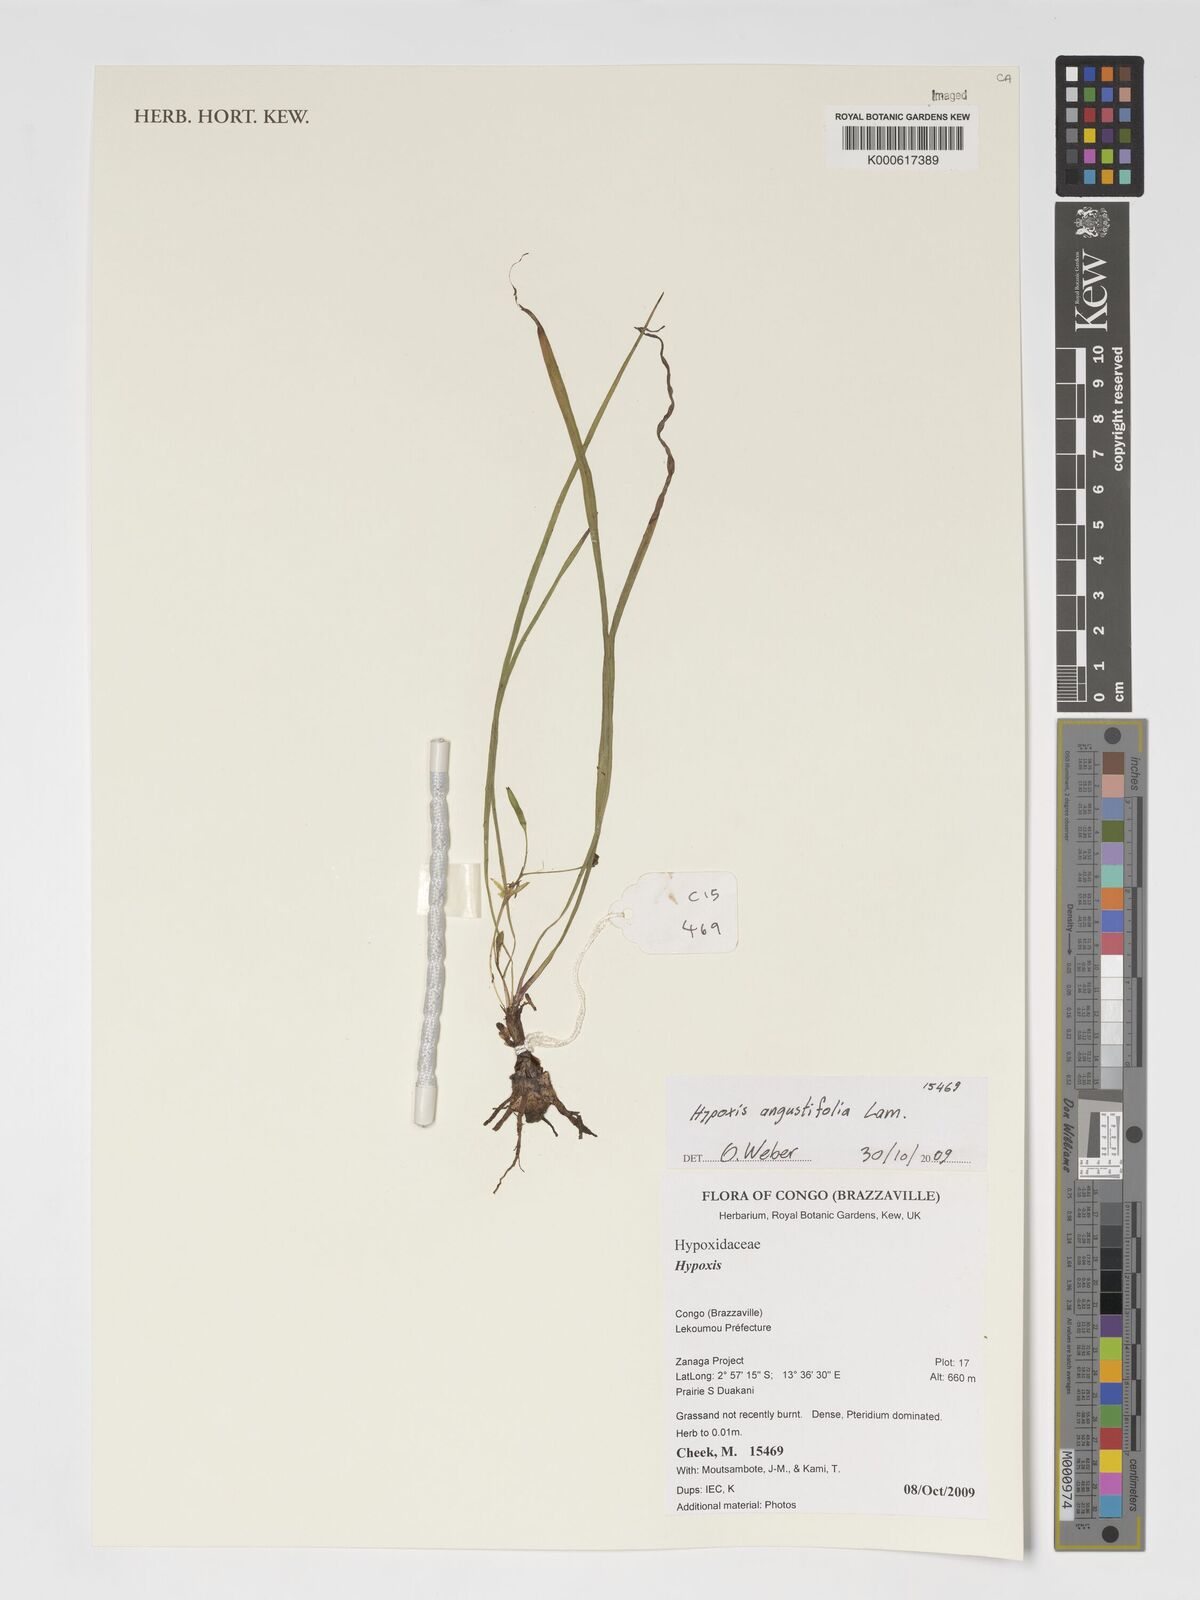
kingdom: Plantae
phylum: Tracheophyta
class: Liliopsida
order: Asparagales
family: Hypoxidaceae
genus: Hypoxis
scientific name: Hypoxis angustifolia
